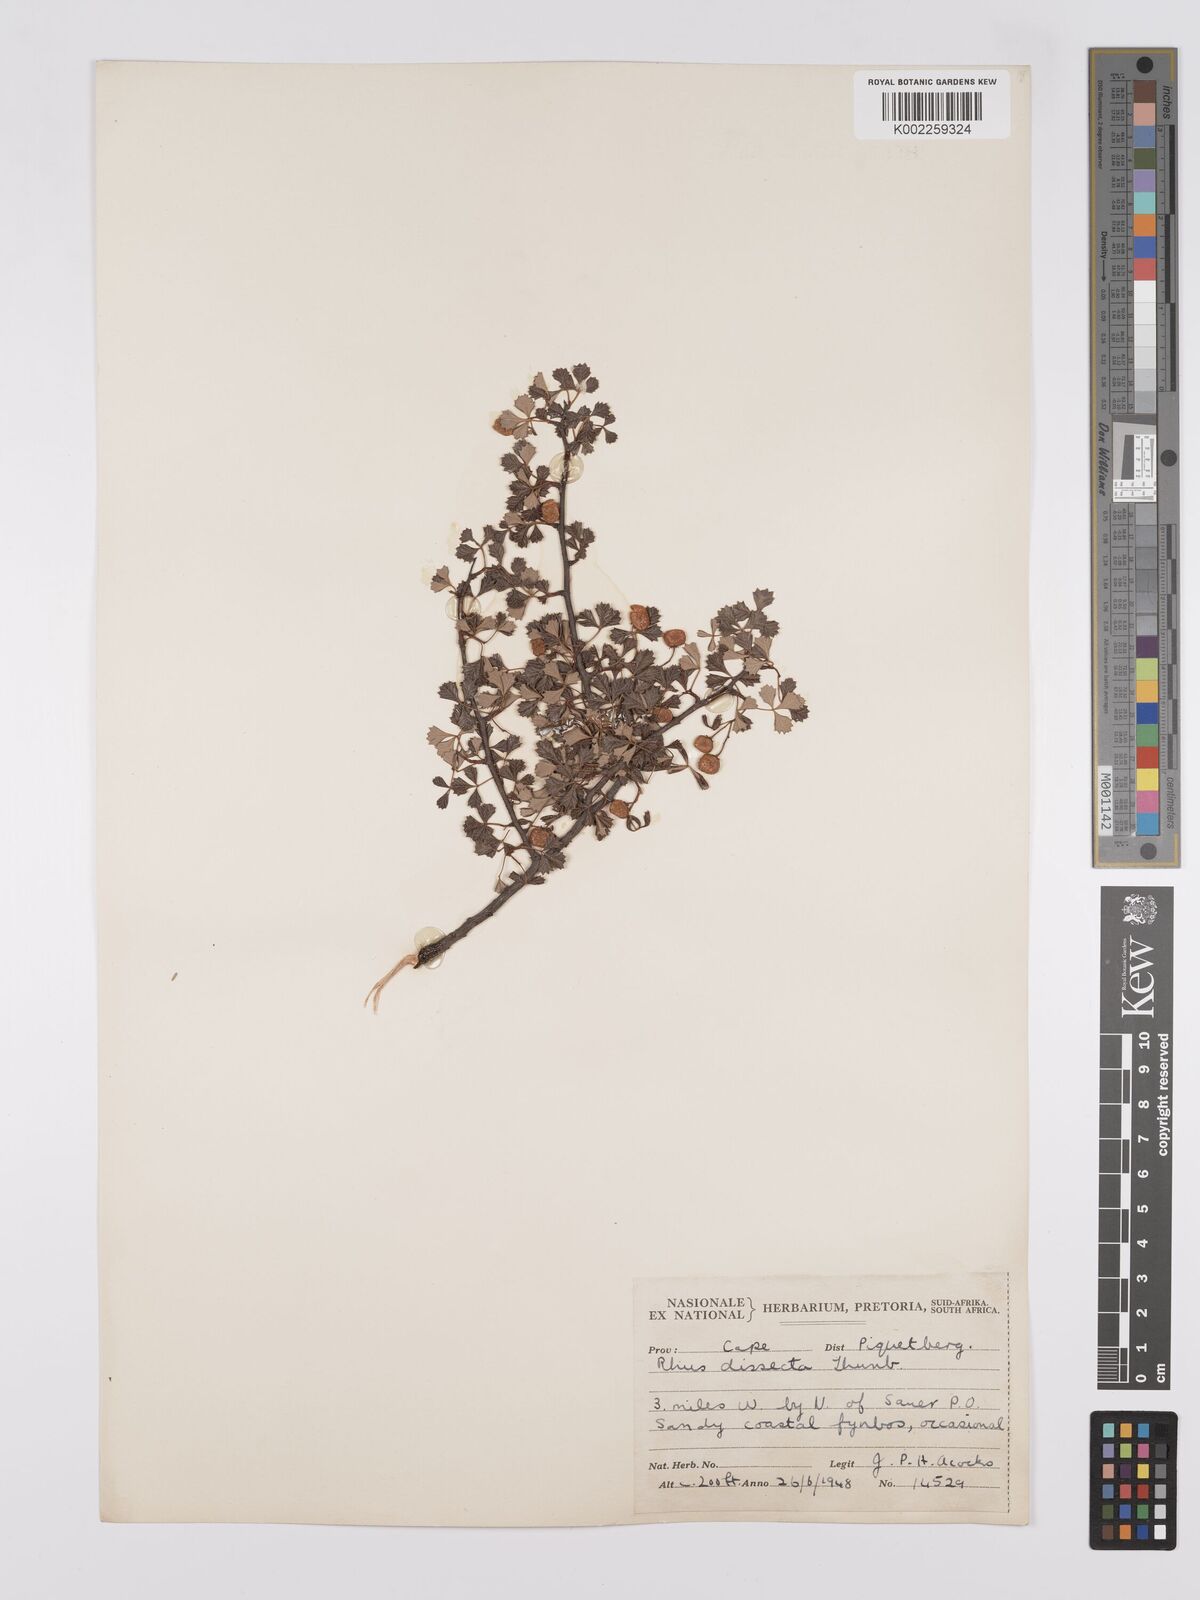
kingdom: Plantae
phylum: Tracheophyta
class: Magnoliopsida
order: Sapindales
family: Anacardiaceae
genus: Searsia
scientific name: Searsia dissecta
